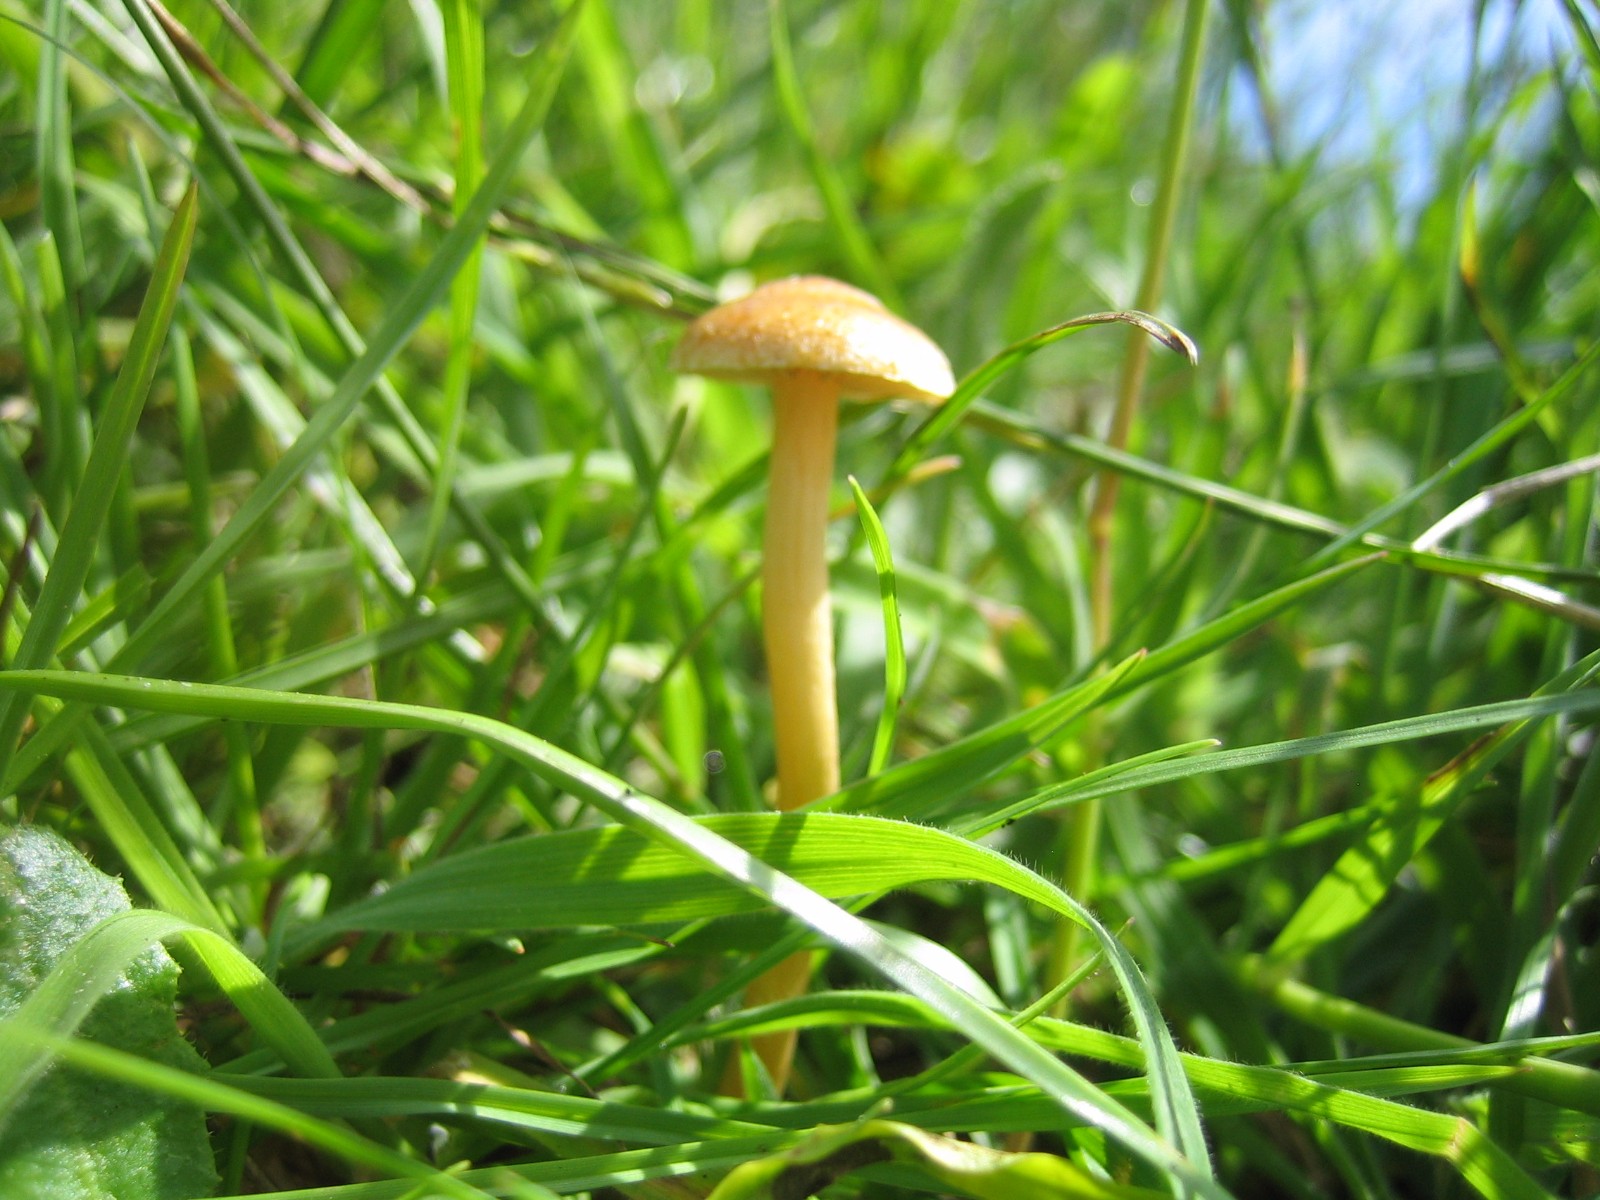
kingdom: Fungi
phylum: Basidiomycota
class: Agaricomycetes
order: Agaricales
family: Strophariaceae
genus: Agrocybe
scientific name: Agrocybe pediades
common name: almindelig agerhat
